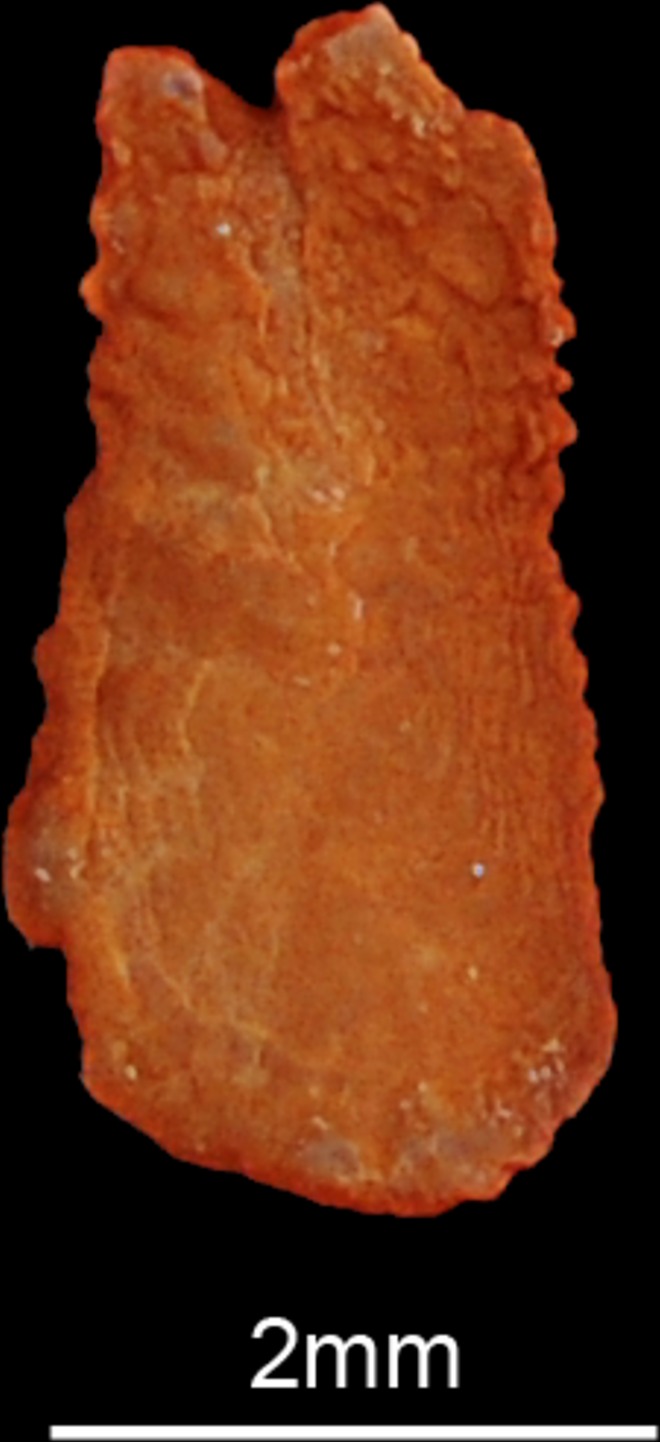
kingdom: Animalia
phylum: Chordata
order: Perciformes
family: Scombridae
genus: Rastrelliger
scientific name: Rastrelliger kanagurta
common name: Indian mackerel
